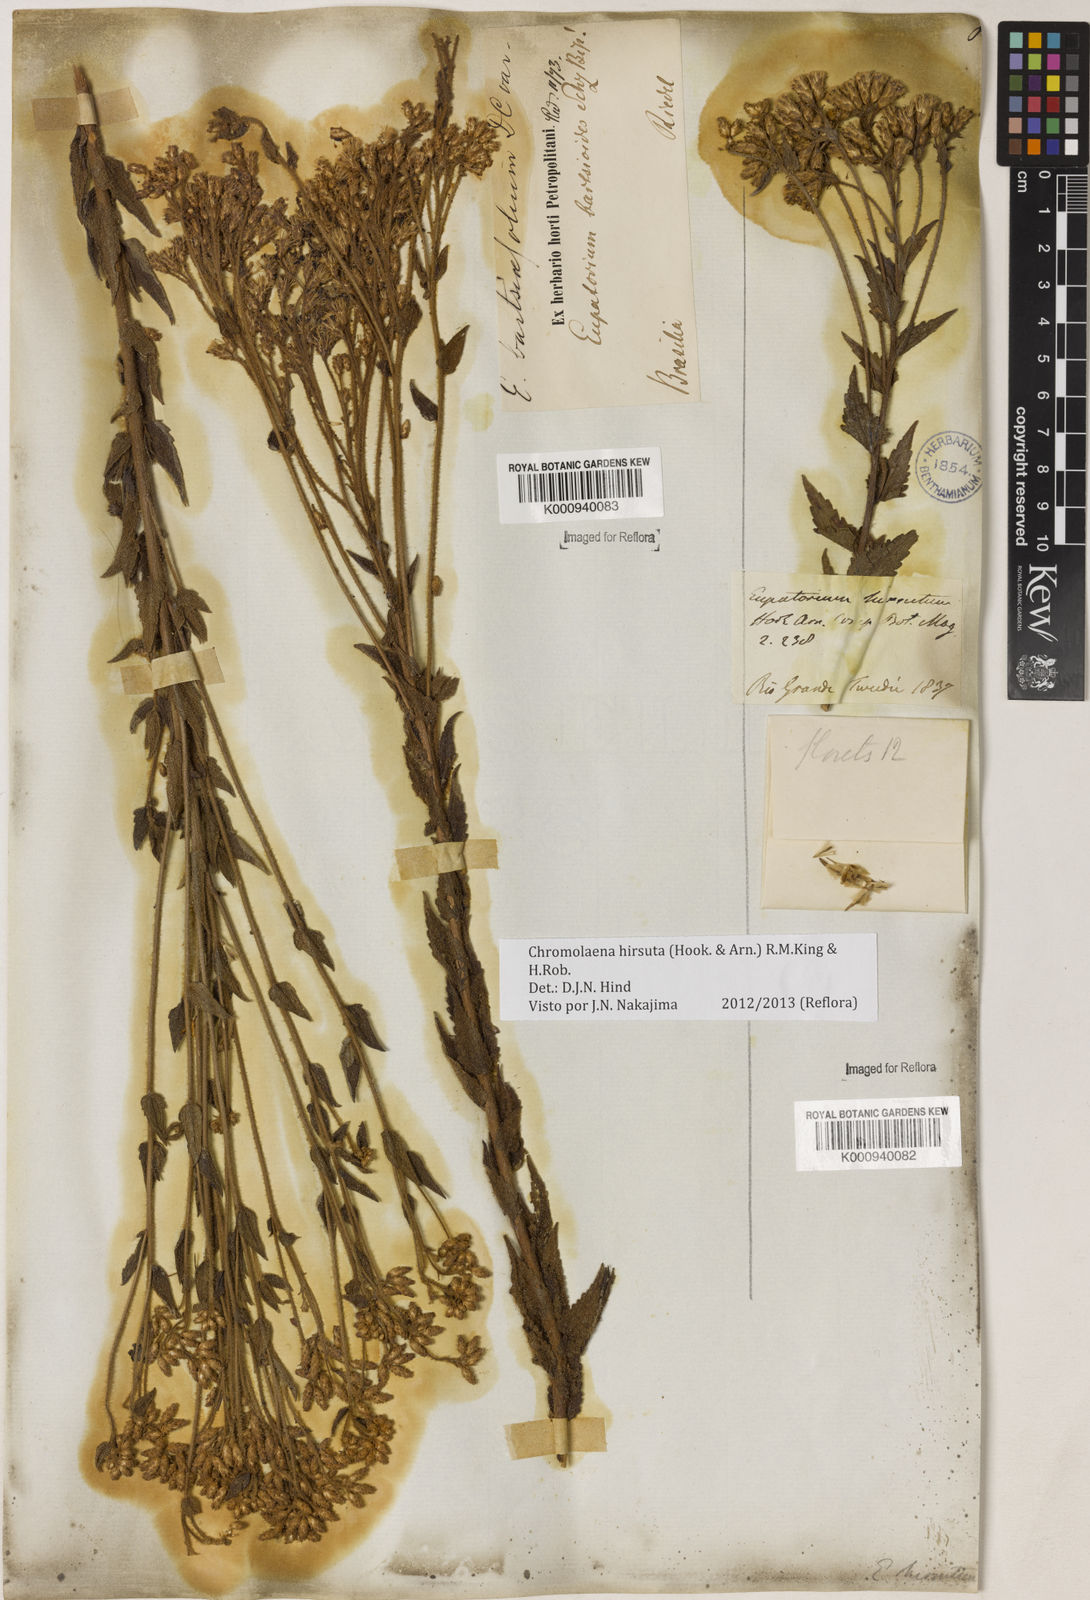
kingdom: Plantae
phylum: Tracheophyta
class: Magnoliopsida
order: Asterales
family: Asteraceae
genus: Chromolaena
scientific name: Chromolaena hirsuta
